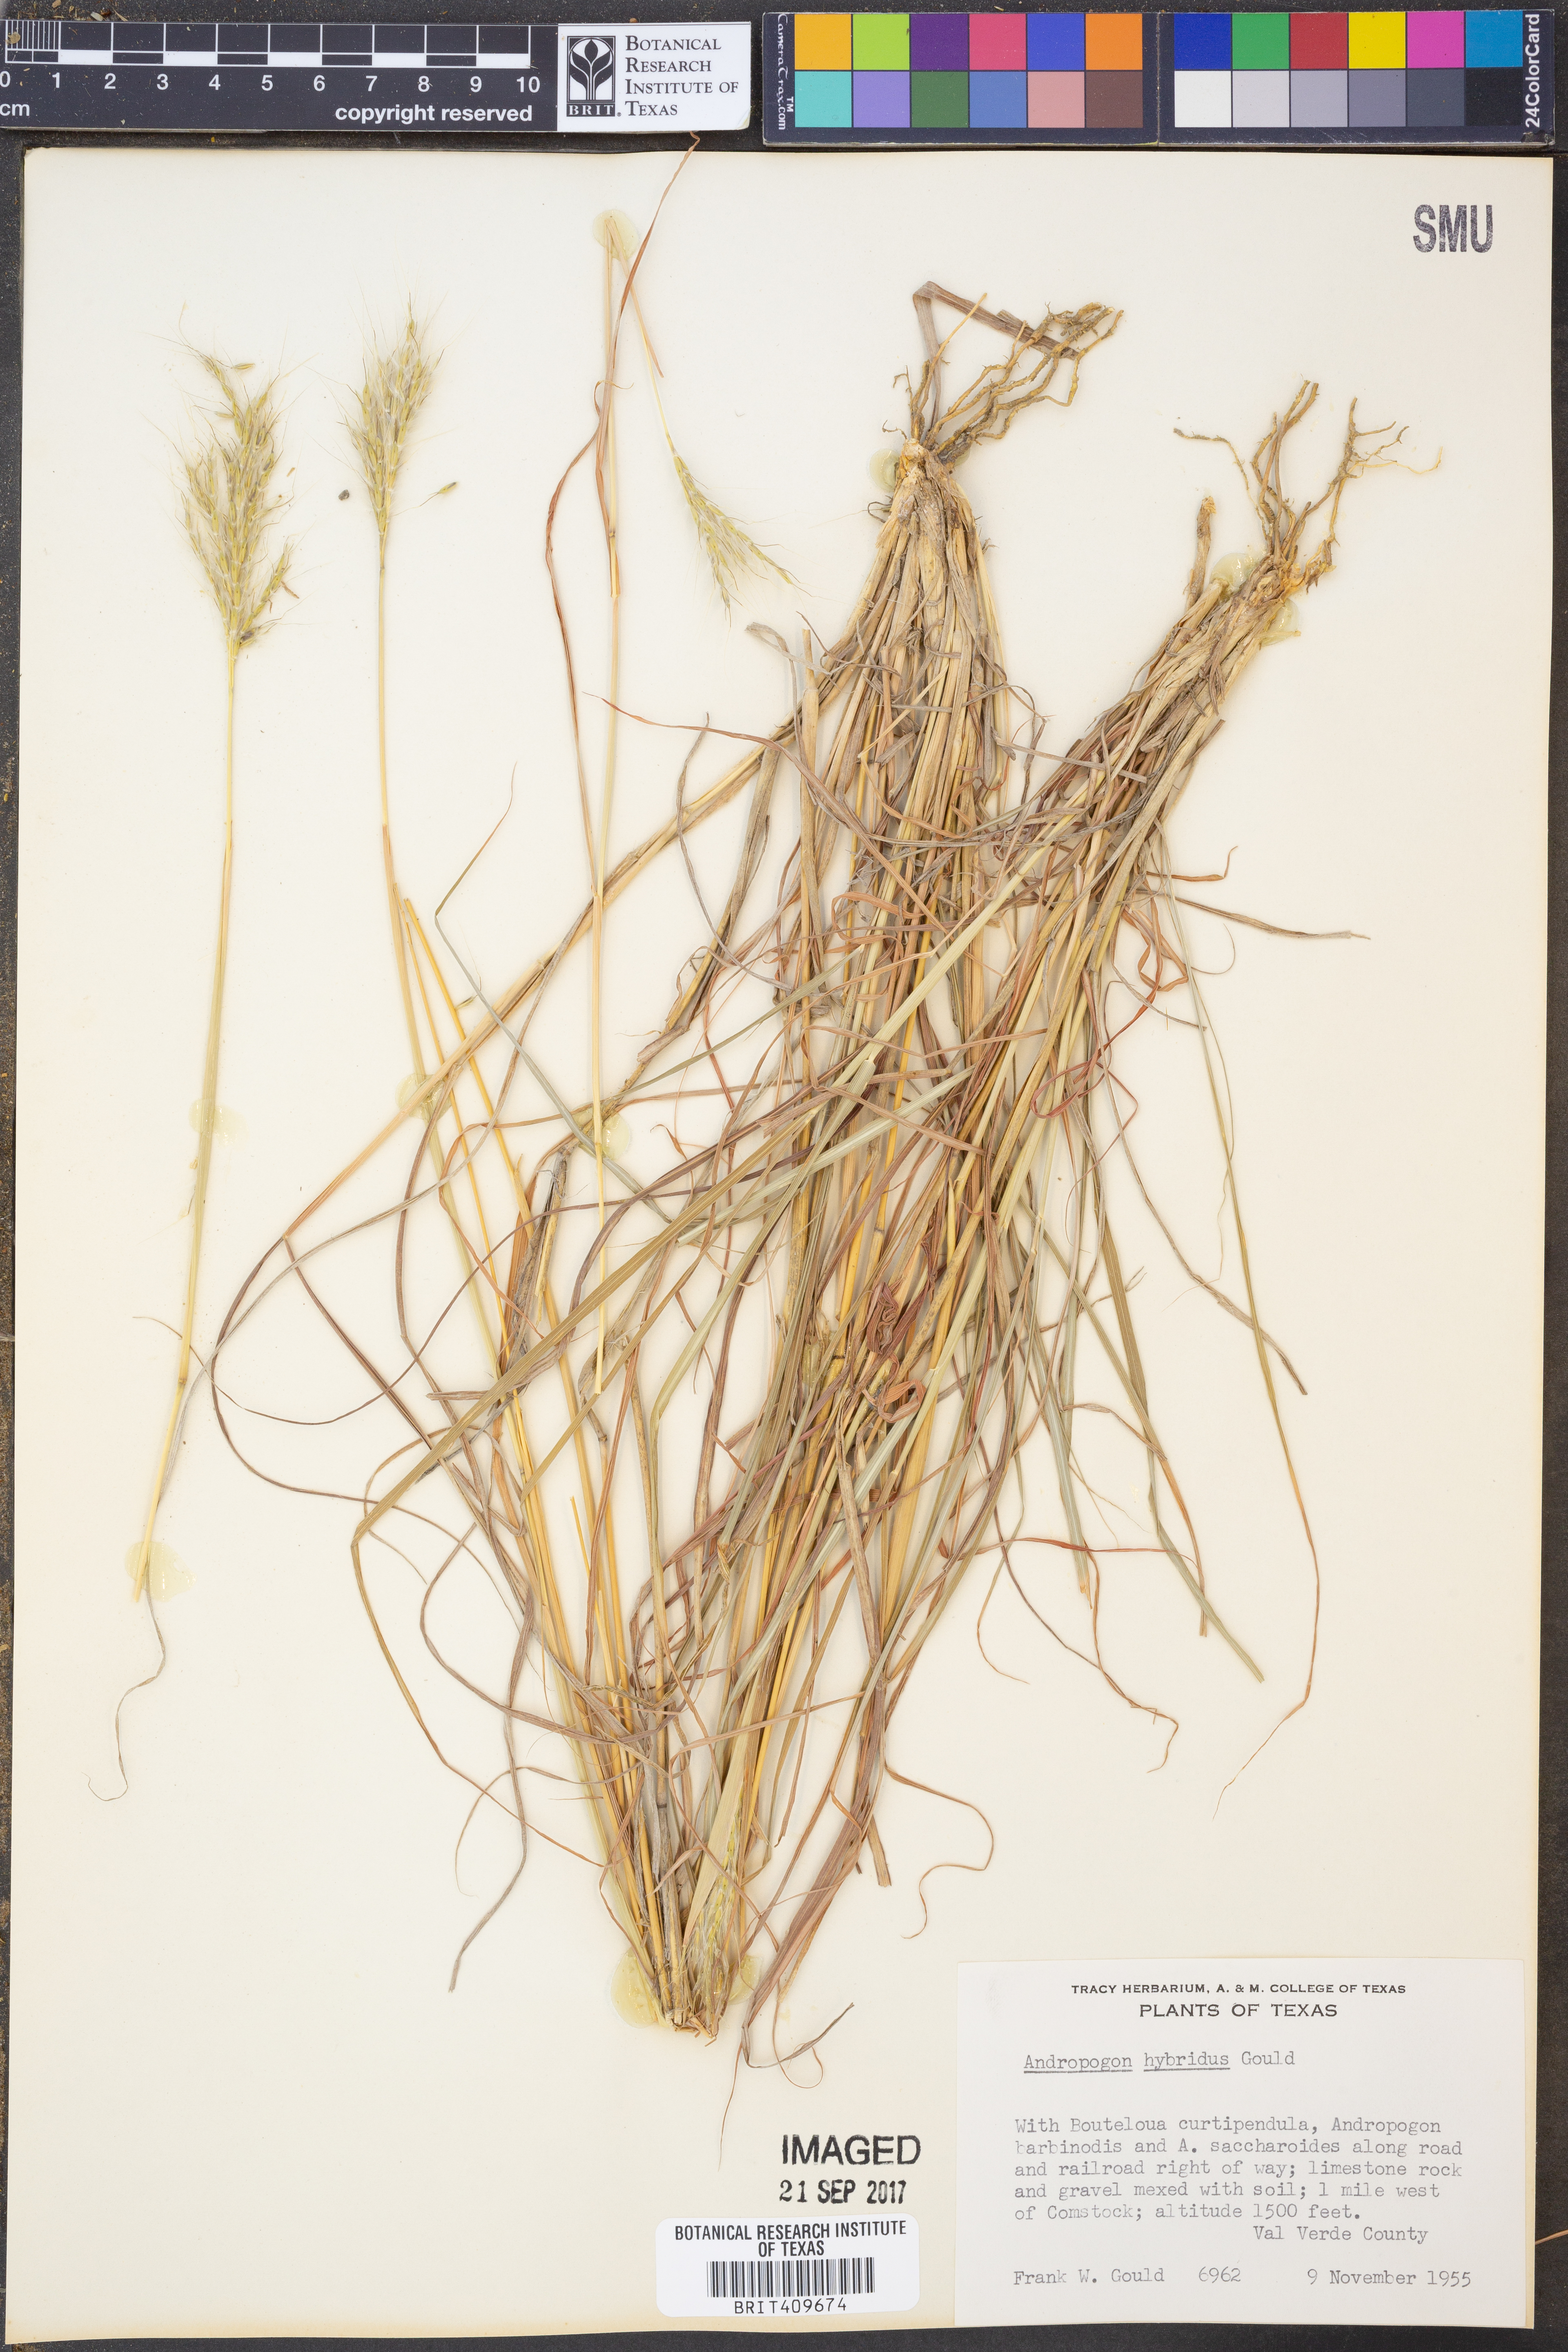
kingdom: Plantae
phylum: Tracheophyta
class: Liliopsida
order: Poales
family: Poaceae
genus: Bothriochloa
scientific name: Bothriochloa hybrida
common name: Hybrid bluestem
